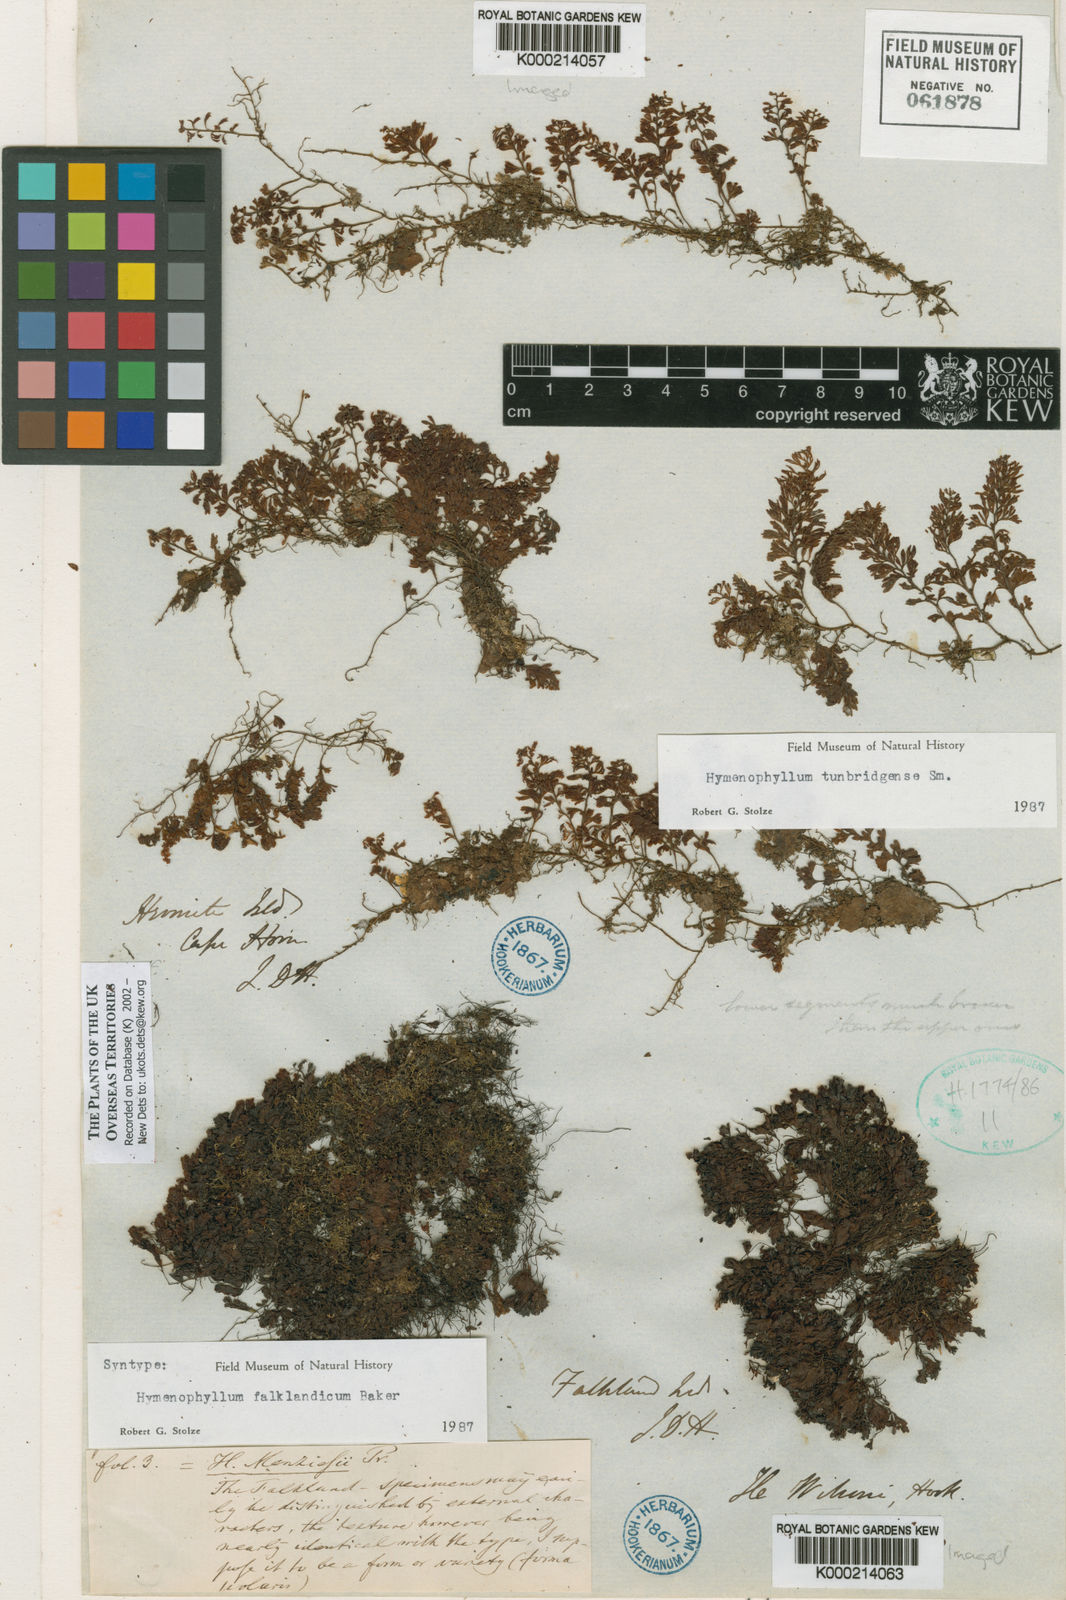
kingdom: Plantae
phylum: Tracheophyta
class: Polypodiopsida
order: Hymenophyllales
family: Hymenophyllaceae
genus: Hymenophyllum
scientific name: Hymenophyllum falklandicum
